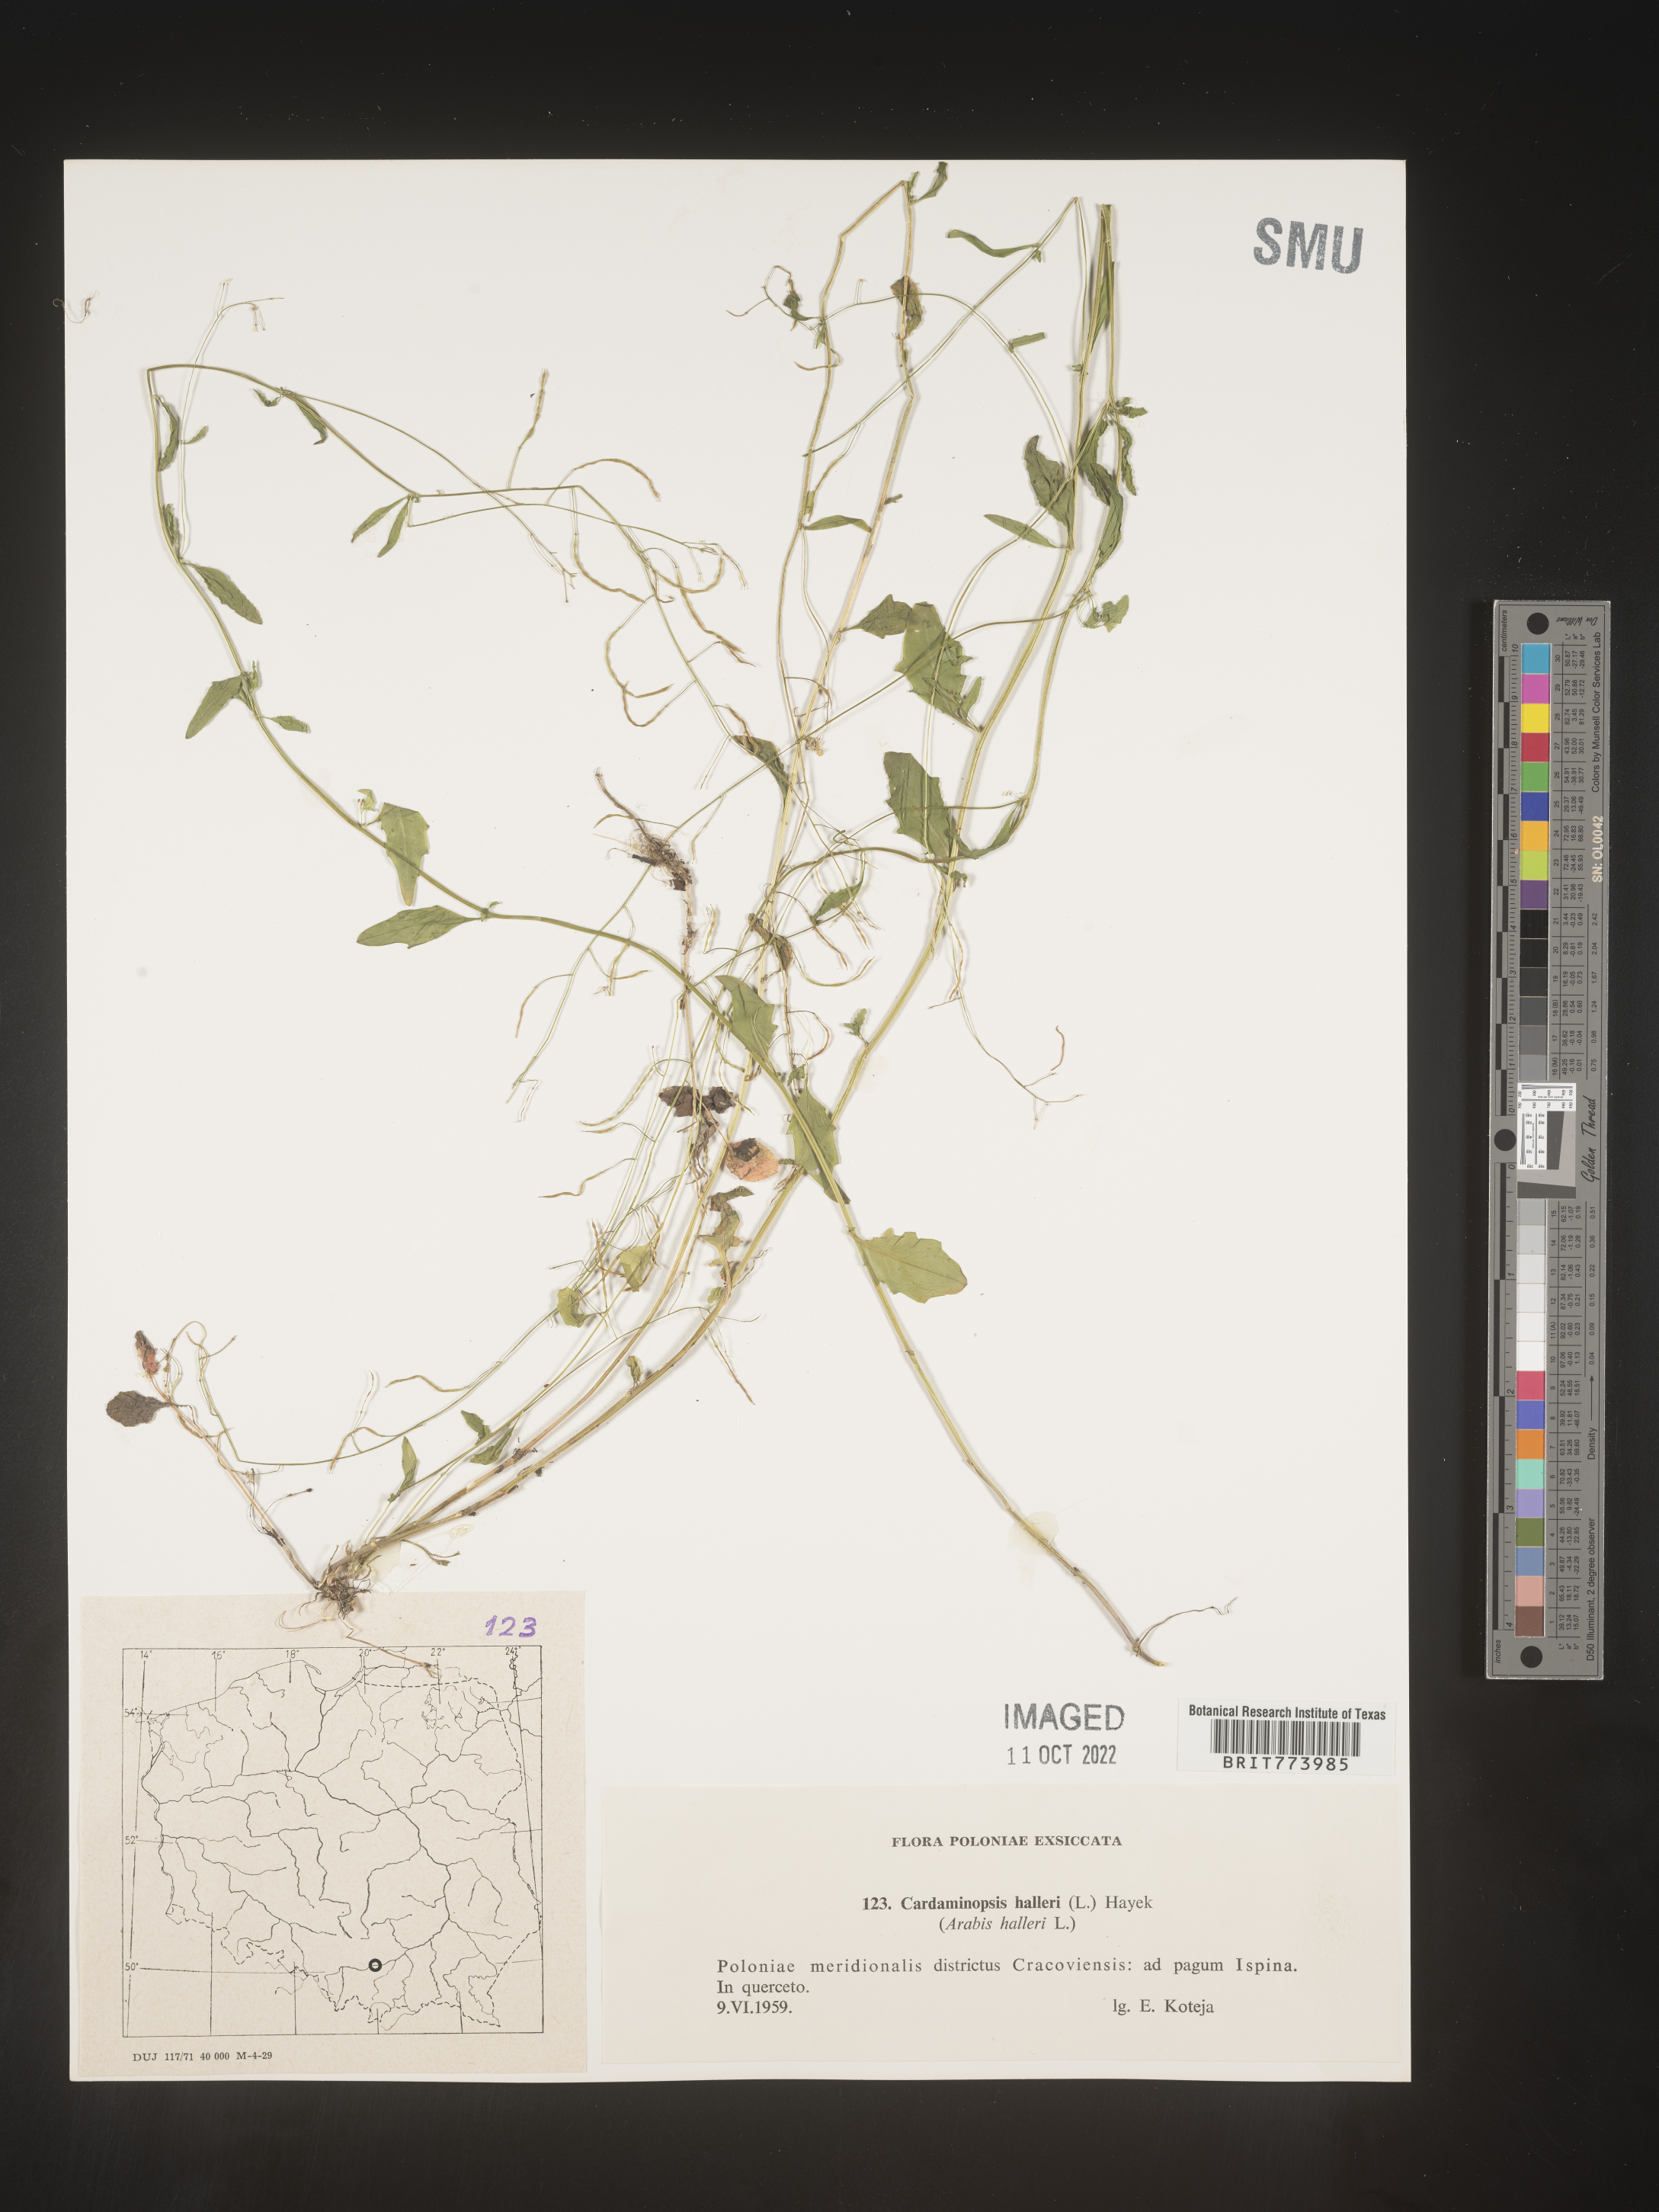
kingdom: Plantae
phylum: Tracheophyta
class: Magnoliopsida
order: Brassicales
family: Brassicaceae
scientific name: Brassicaceae
